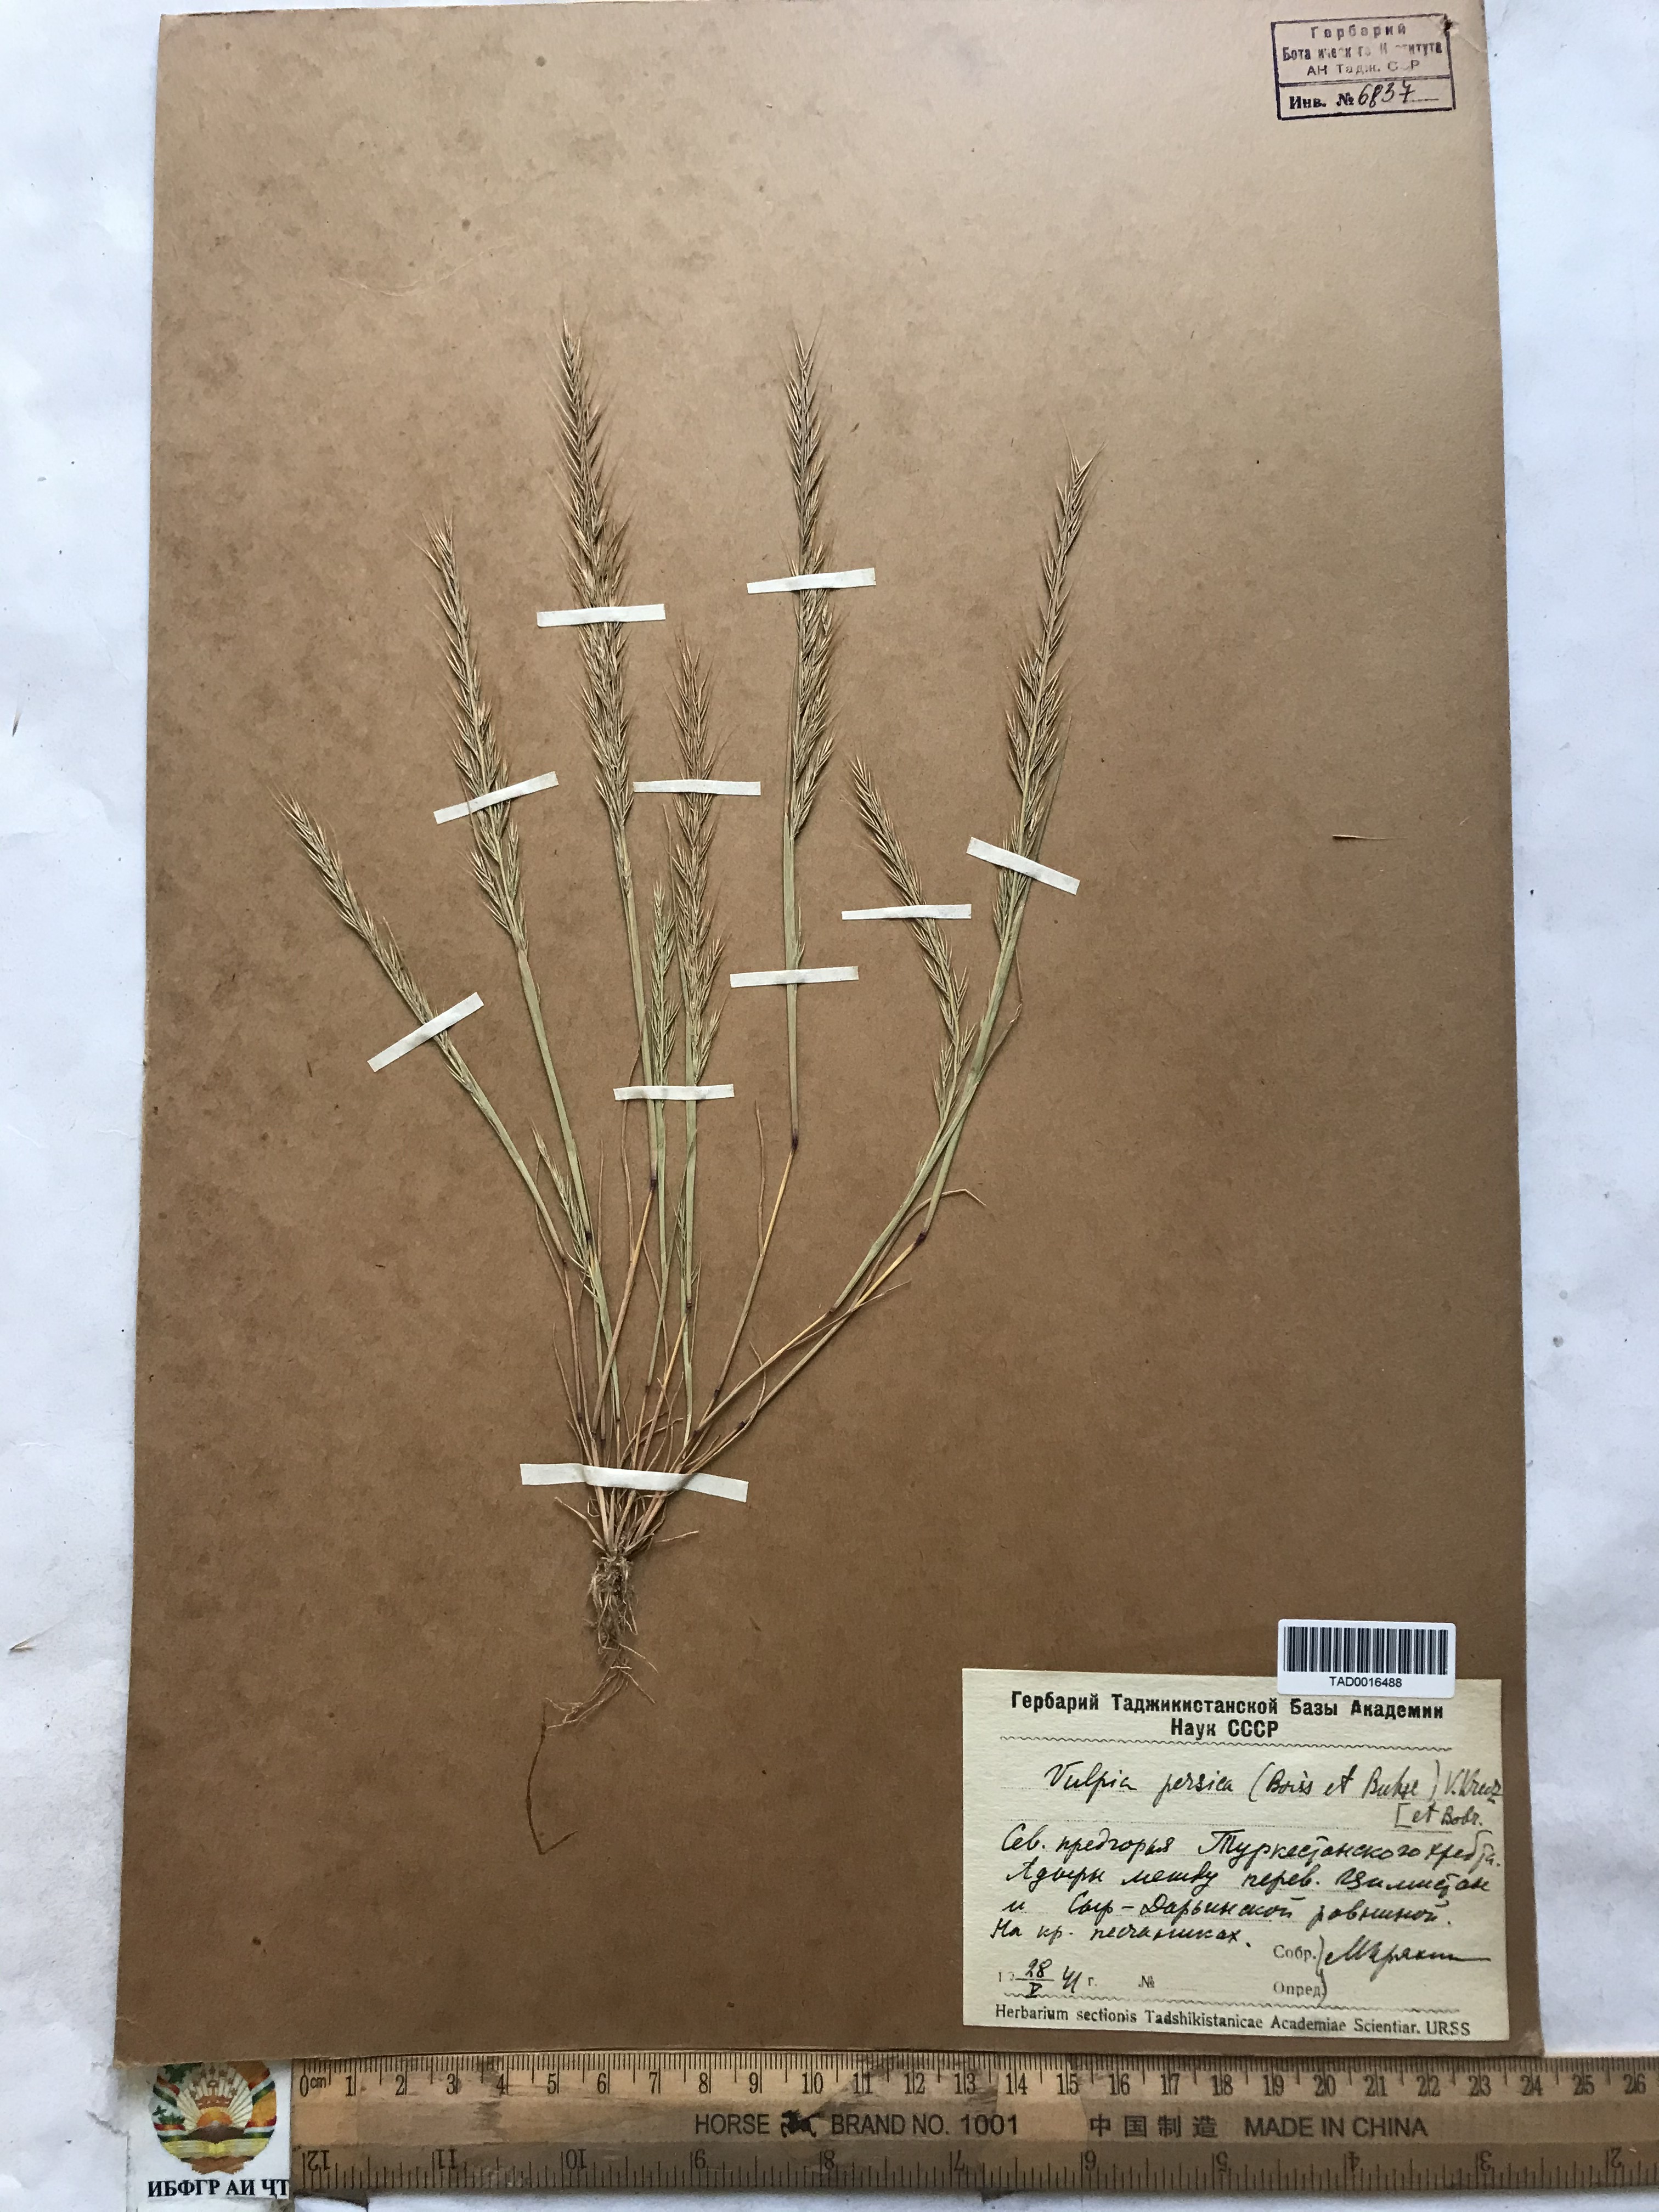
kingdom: Plantae
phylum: Tracheophyta
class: Liliopsida
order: Poales
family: Poaceae
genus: Festuca
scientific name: Festuca Vulpia persica
